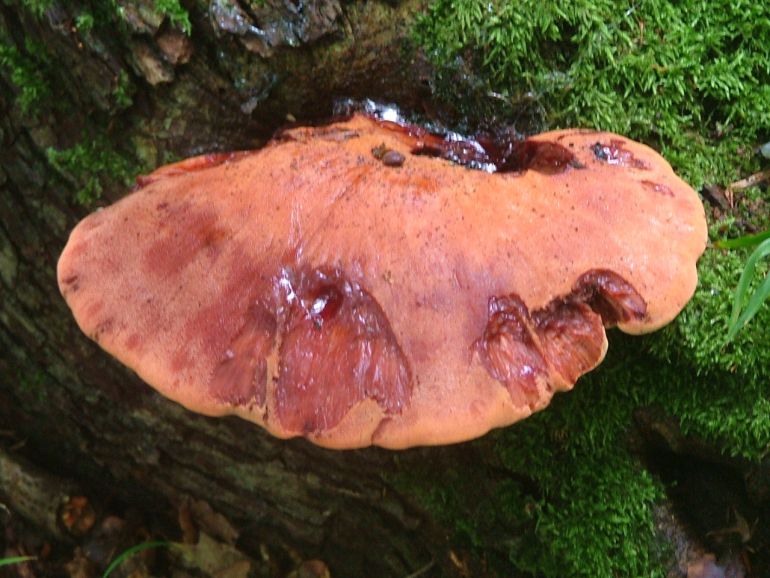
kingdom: Fungi
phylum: Basidiomycota
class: Agaricomycetes
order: Agaricales
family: Fistulinaceae
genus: Fistulina
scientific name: Fistulina hepatica
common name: oksetunge
